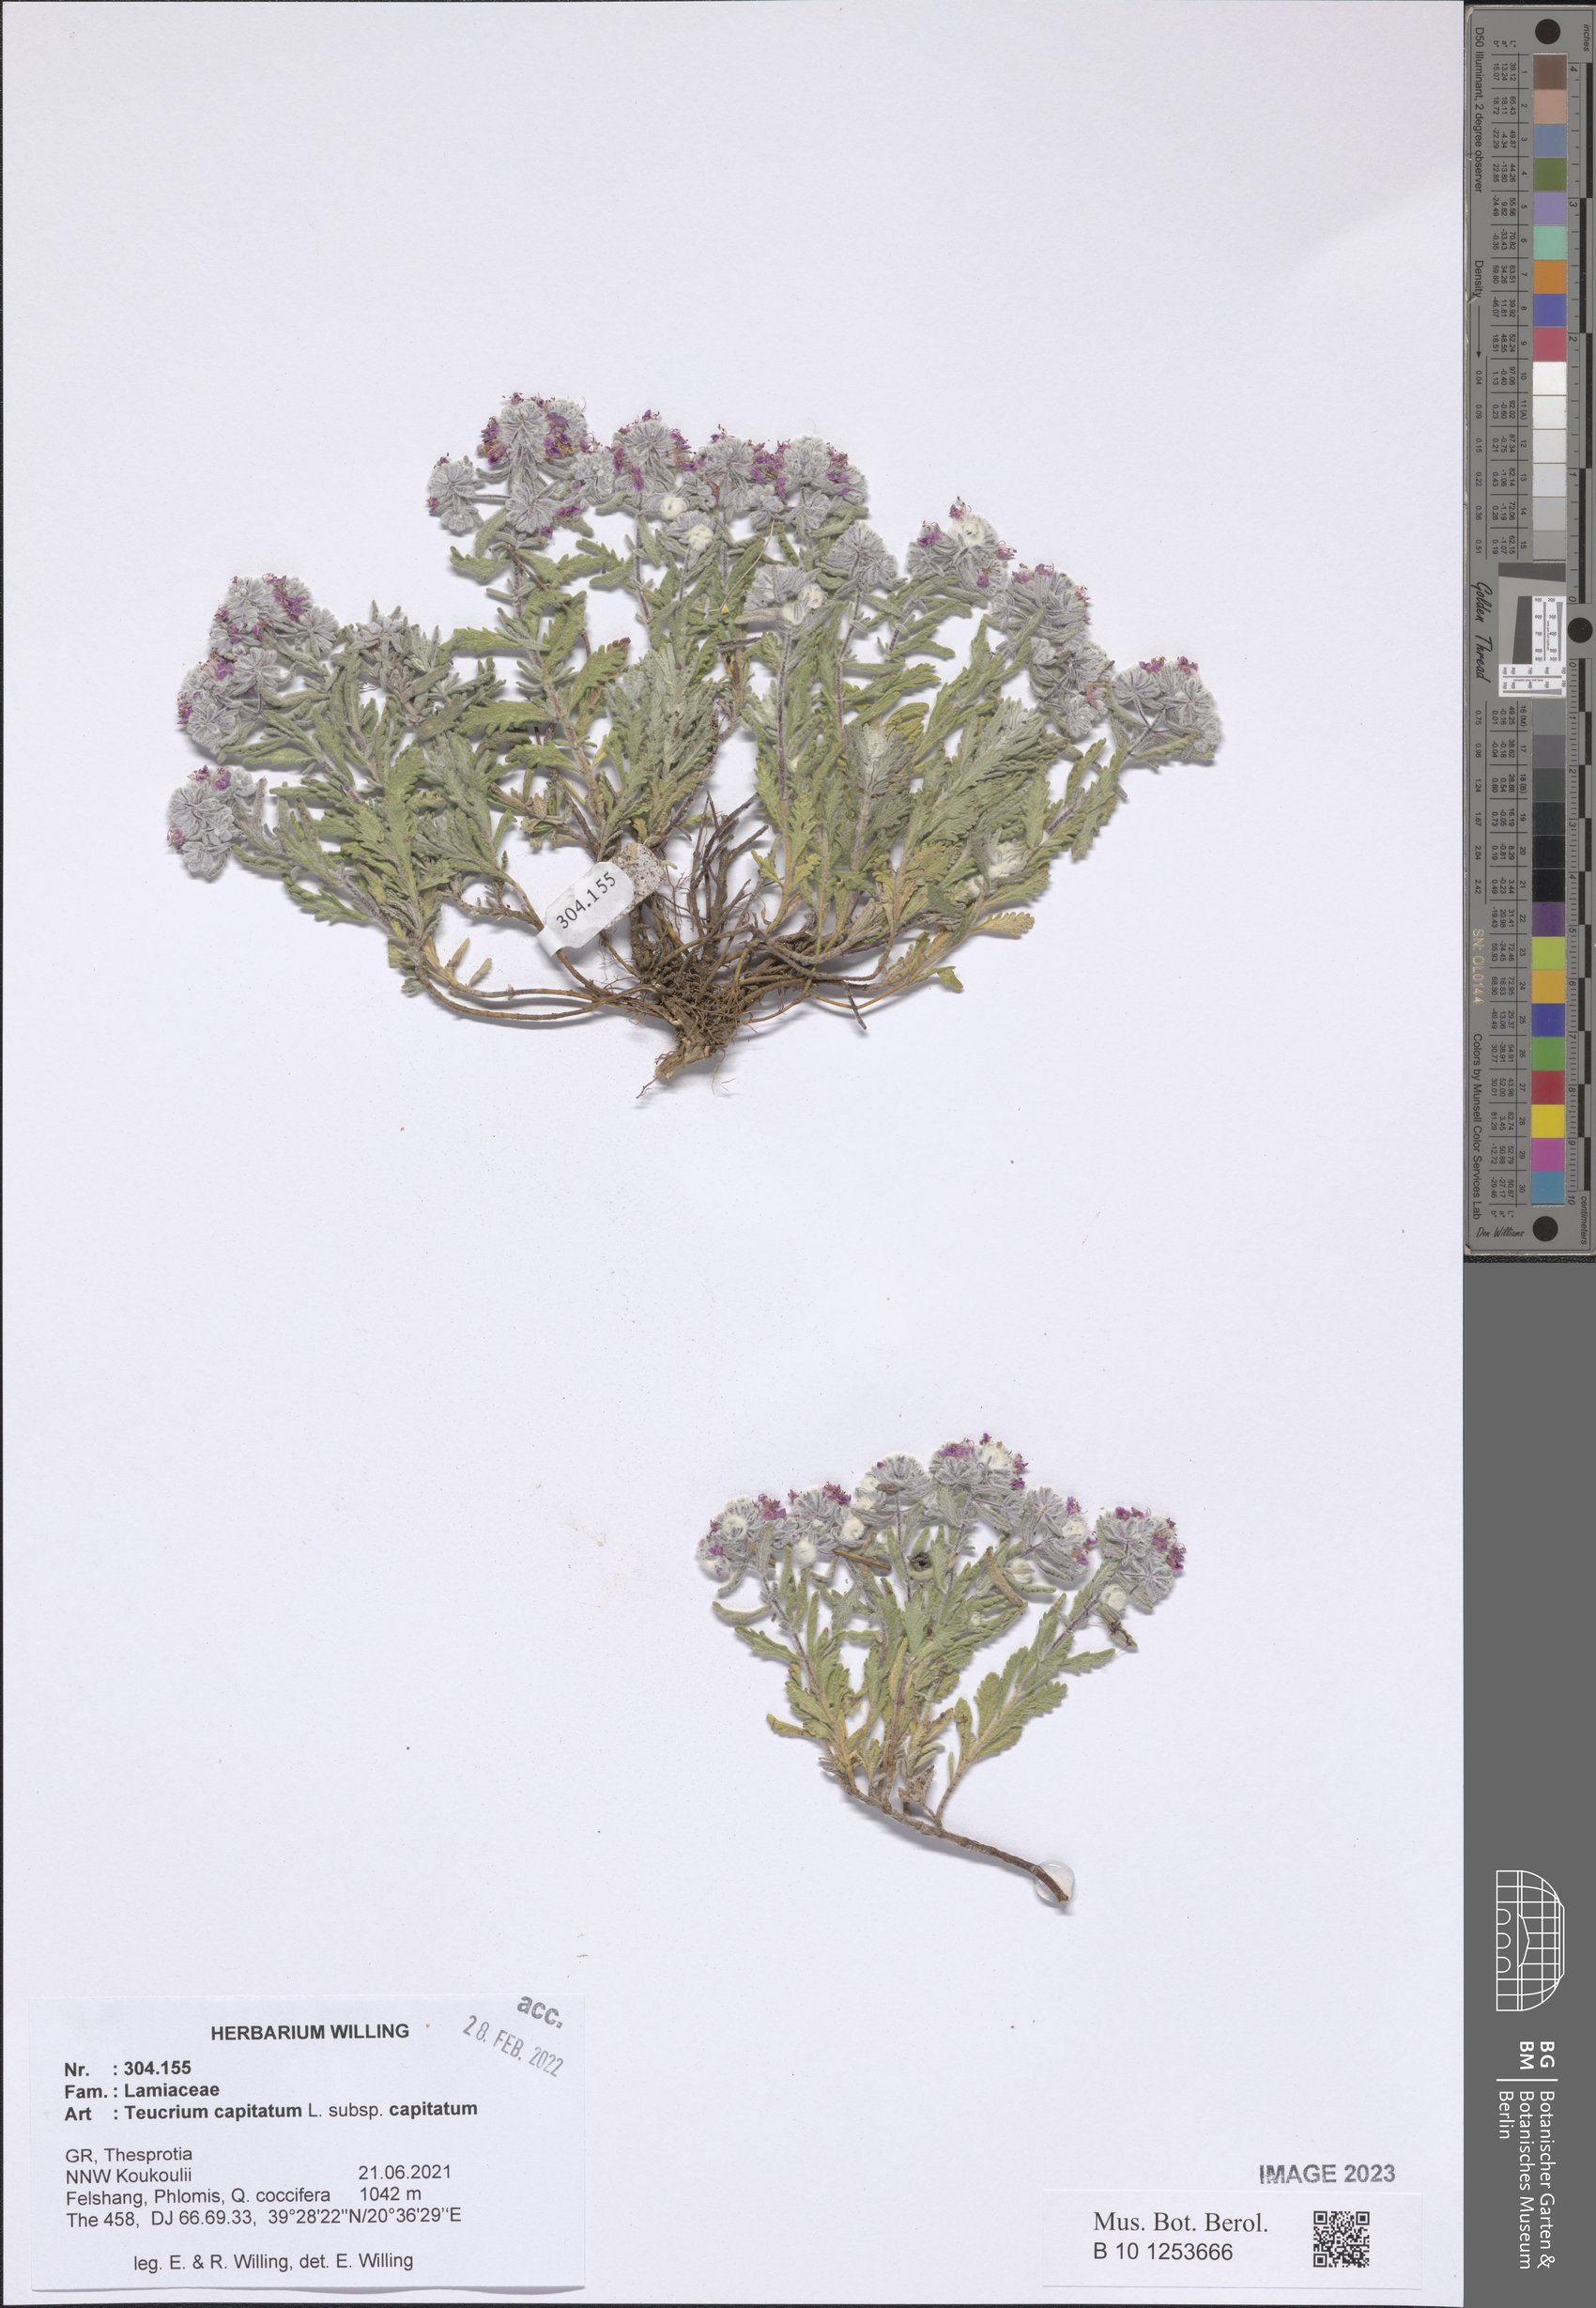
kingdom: Plantae
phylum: Tracheophyta
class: Magnoliopsida
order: Lamiales
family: Lamiaceae
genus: Teucrium
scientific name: Teucrium capitatum
